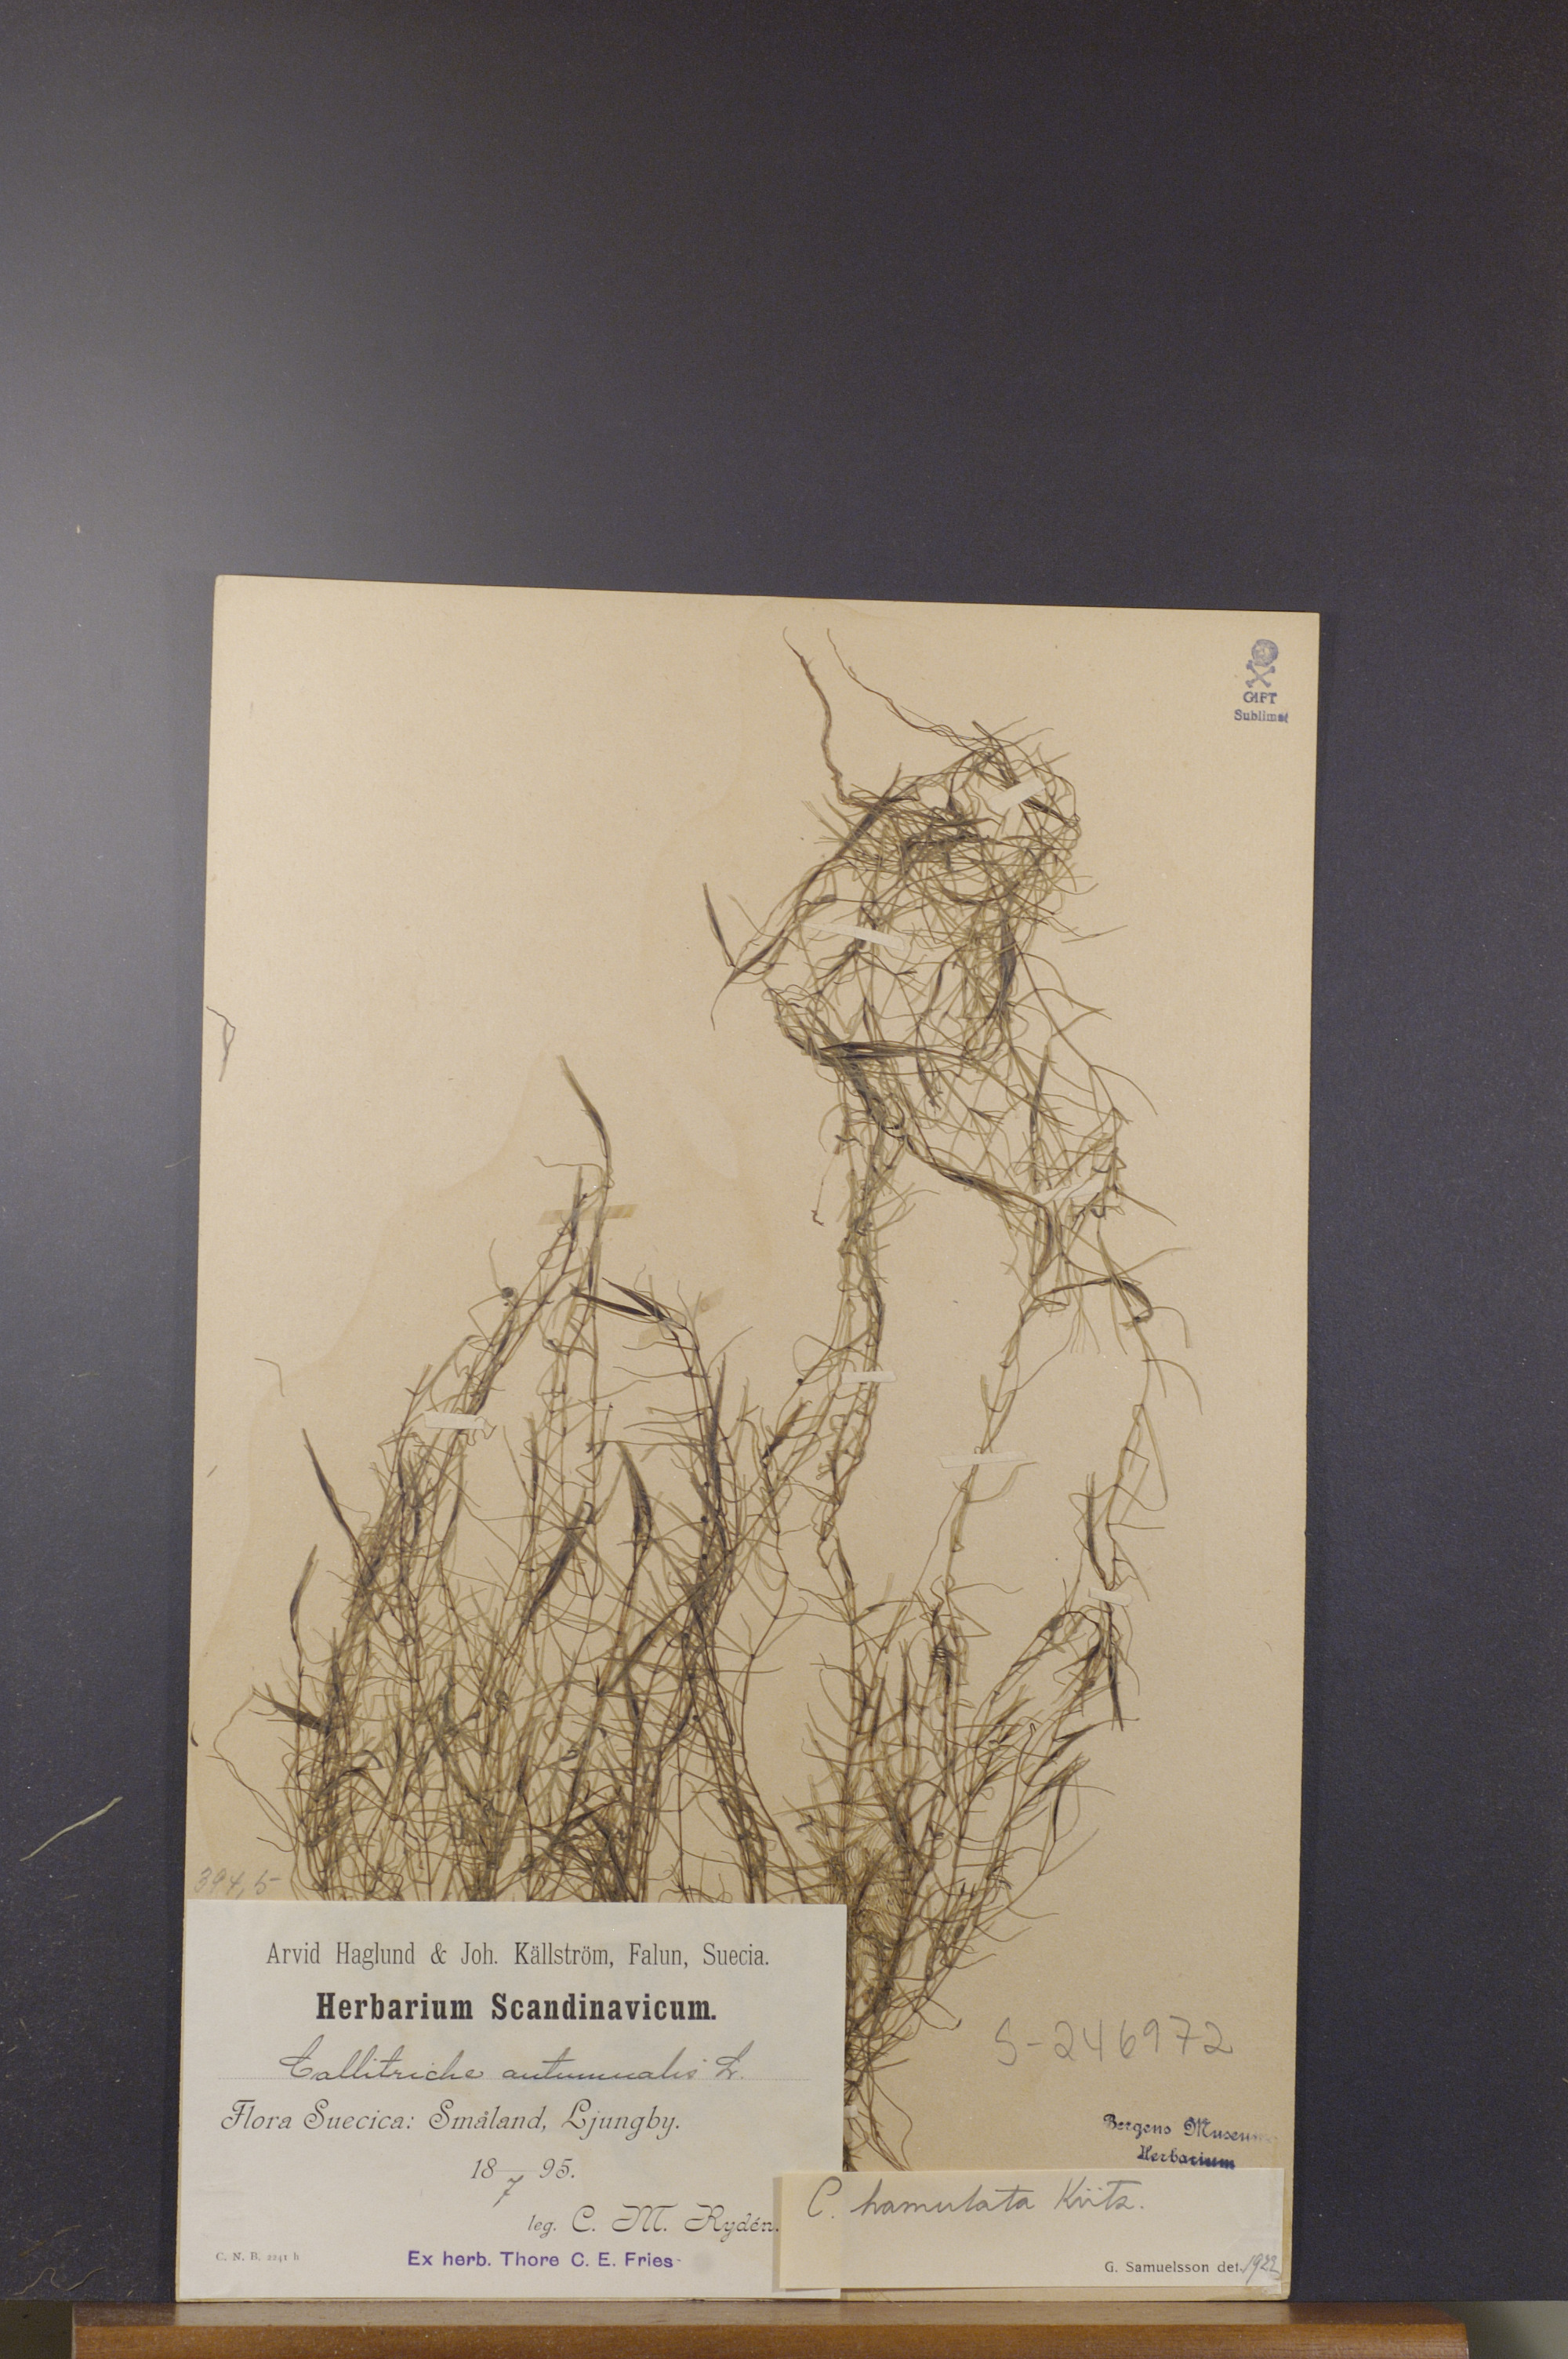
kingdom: Plantae
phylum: Tracheophyta
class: Magnoliopsida
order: Lamiales
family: Plantaginaceae
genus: Callitriche
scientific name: Callitriche hamulata
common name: Intermediate water-starwort
